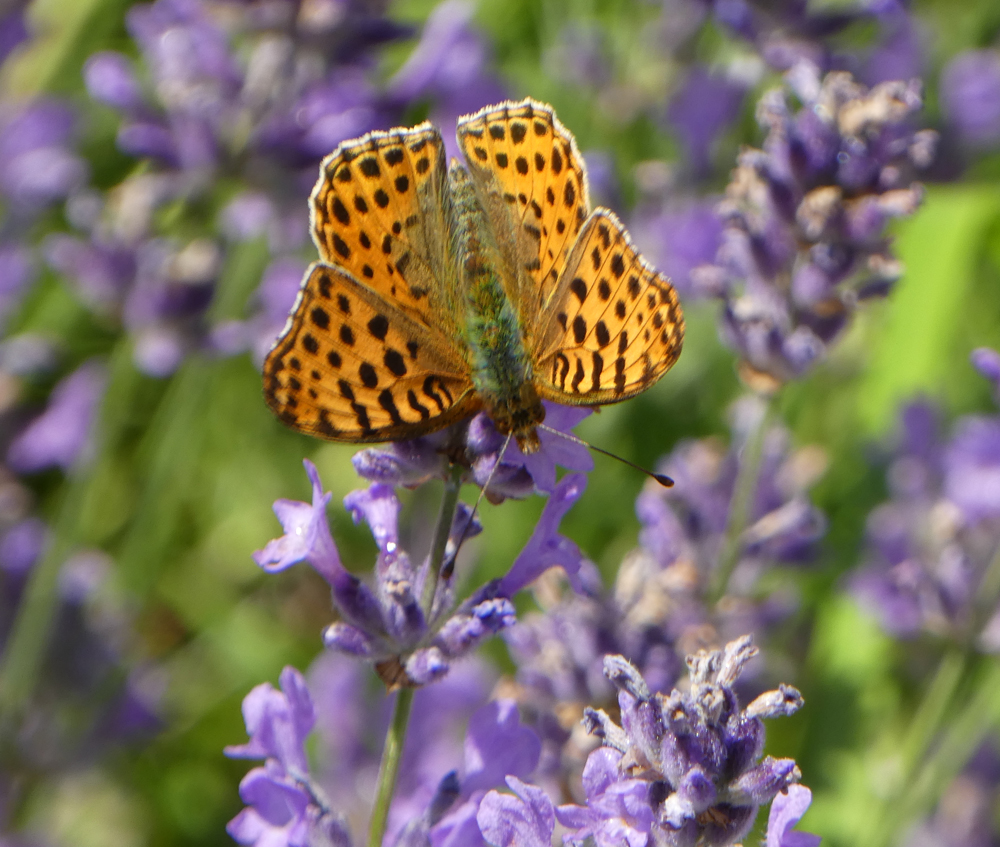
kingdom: Animalia
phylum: Arthropoda
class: Insecta
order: Lepidoptera
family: Nymphalidae
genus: Issoria
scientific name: Issoria lathonia
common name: Queen of spain fritillary
